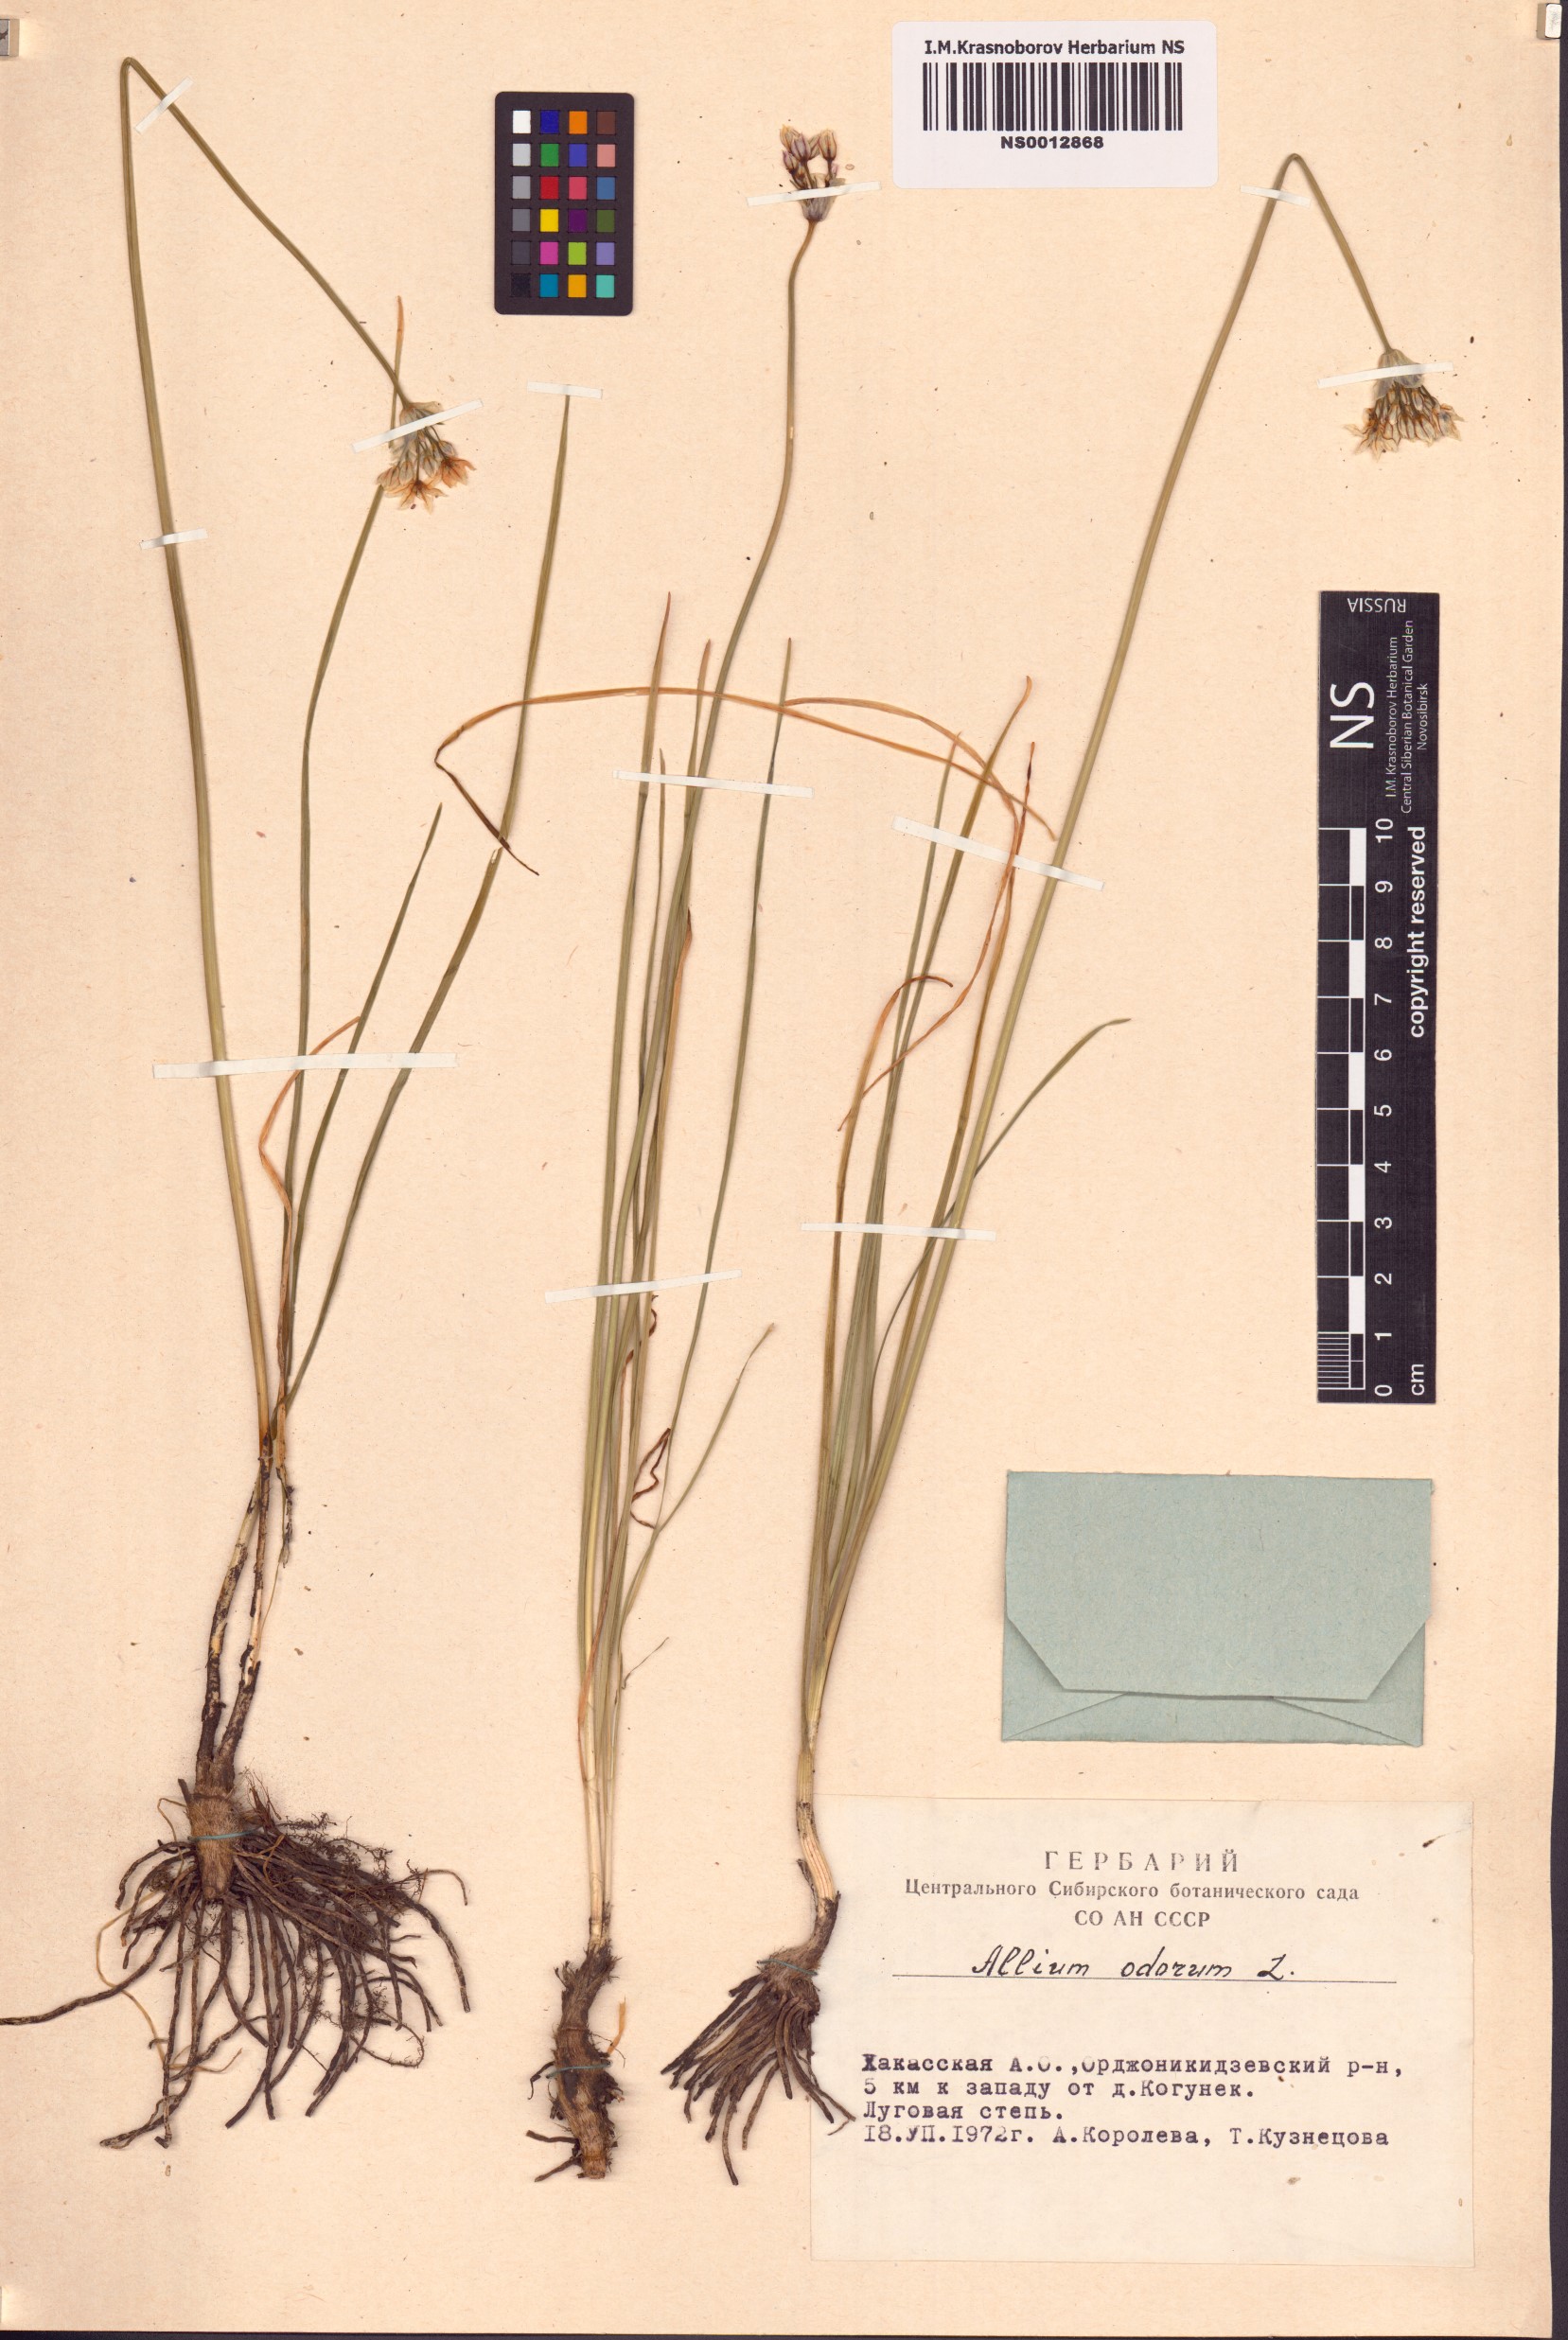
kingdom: Plantae
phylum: Tracheophyta
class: Liliopsida
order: Asparagales
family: Amaryllidaceae
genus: Allium
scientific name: Allium ramosum
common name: Fragrant garlic
